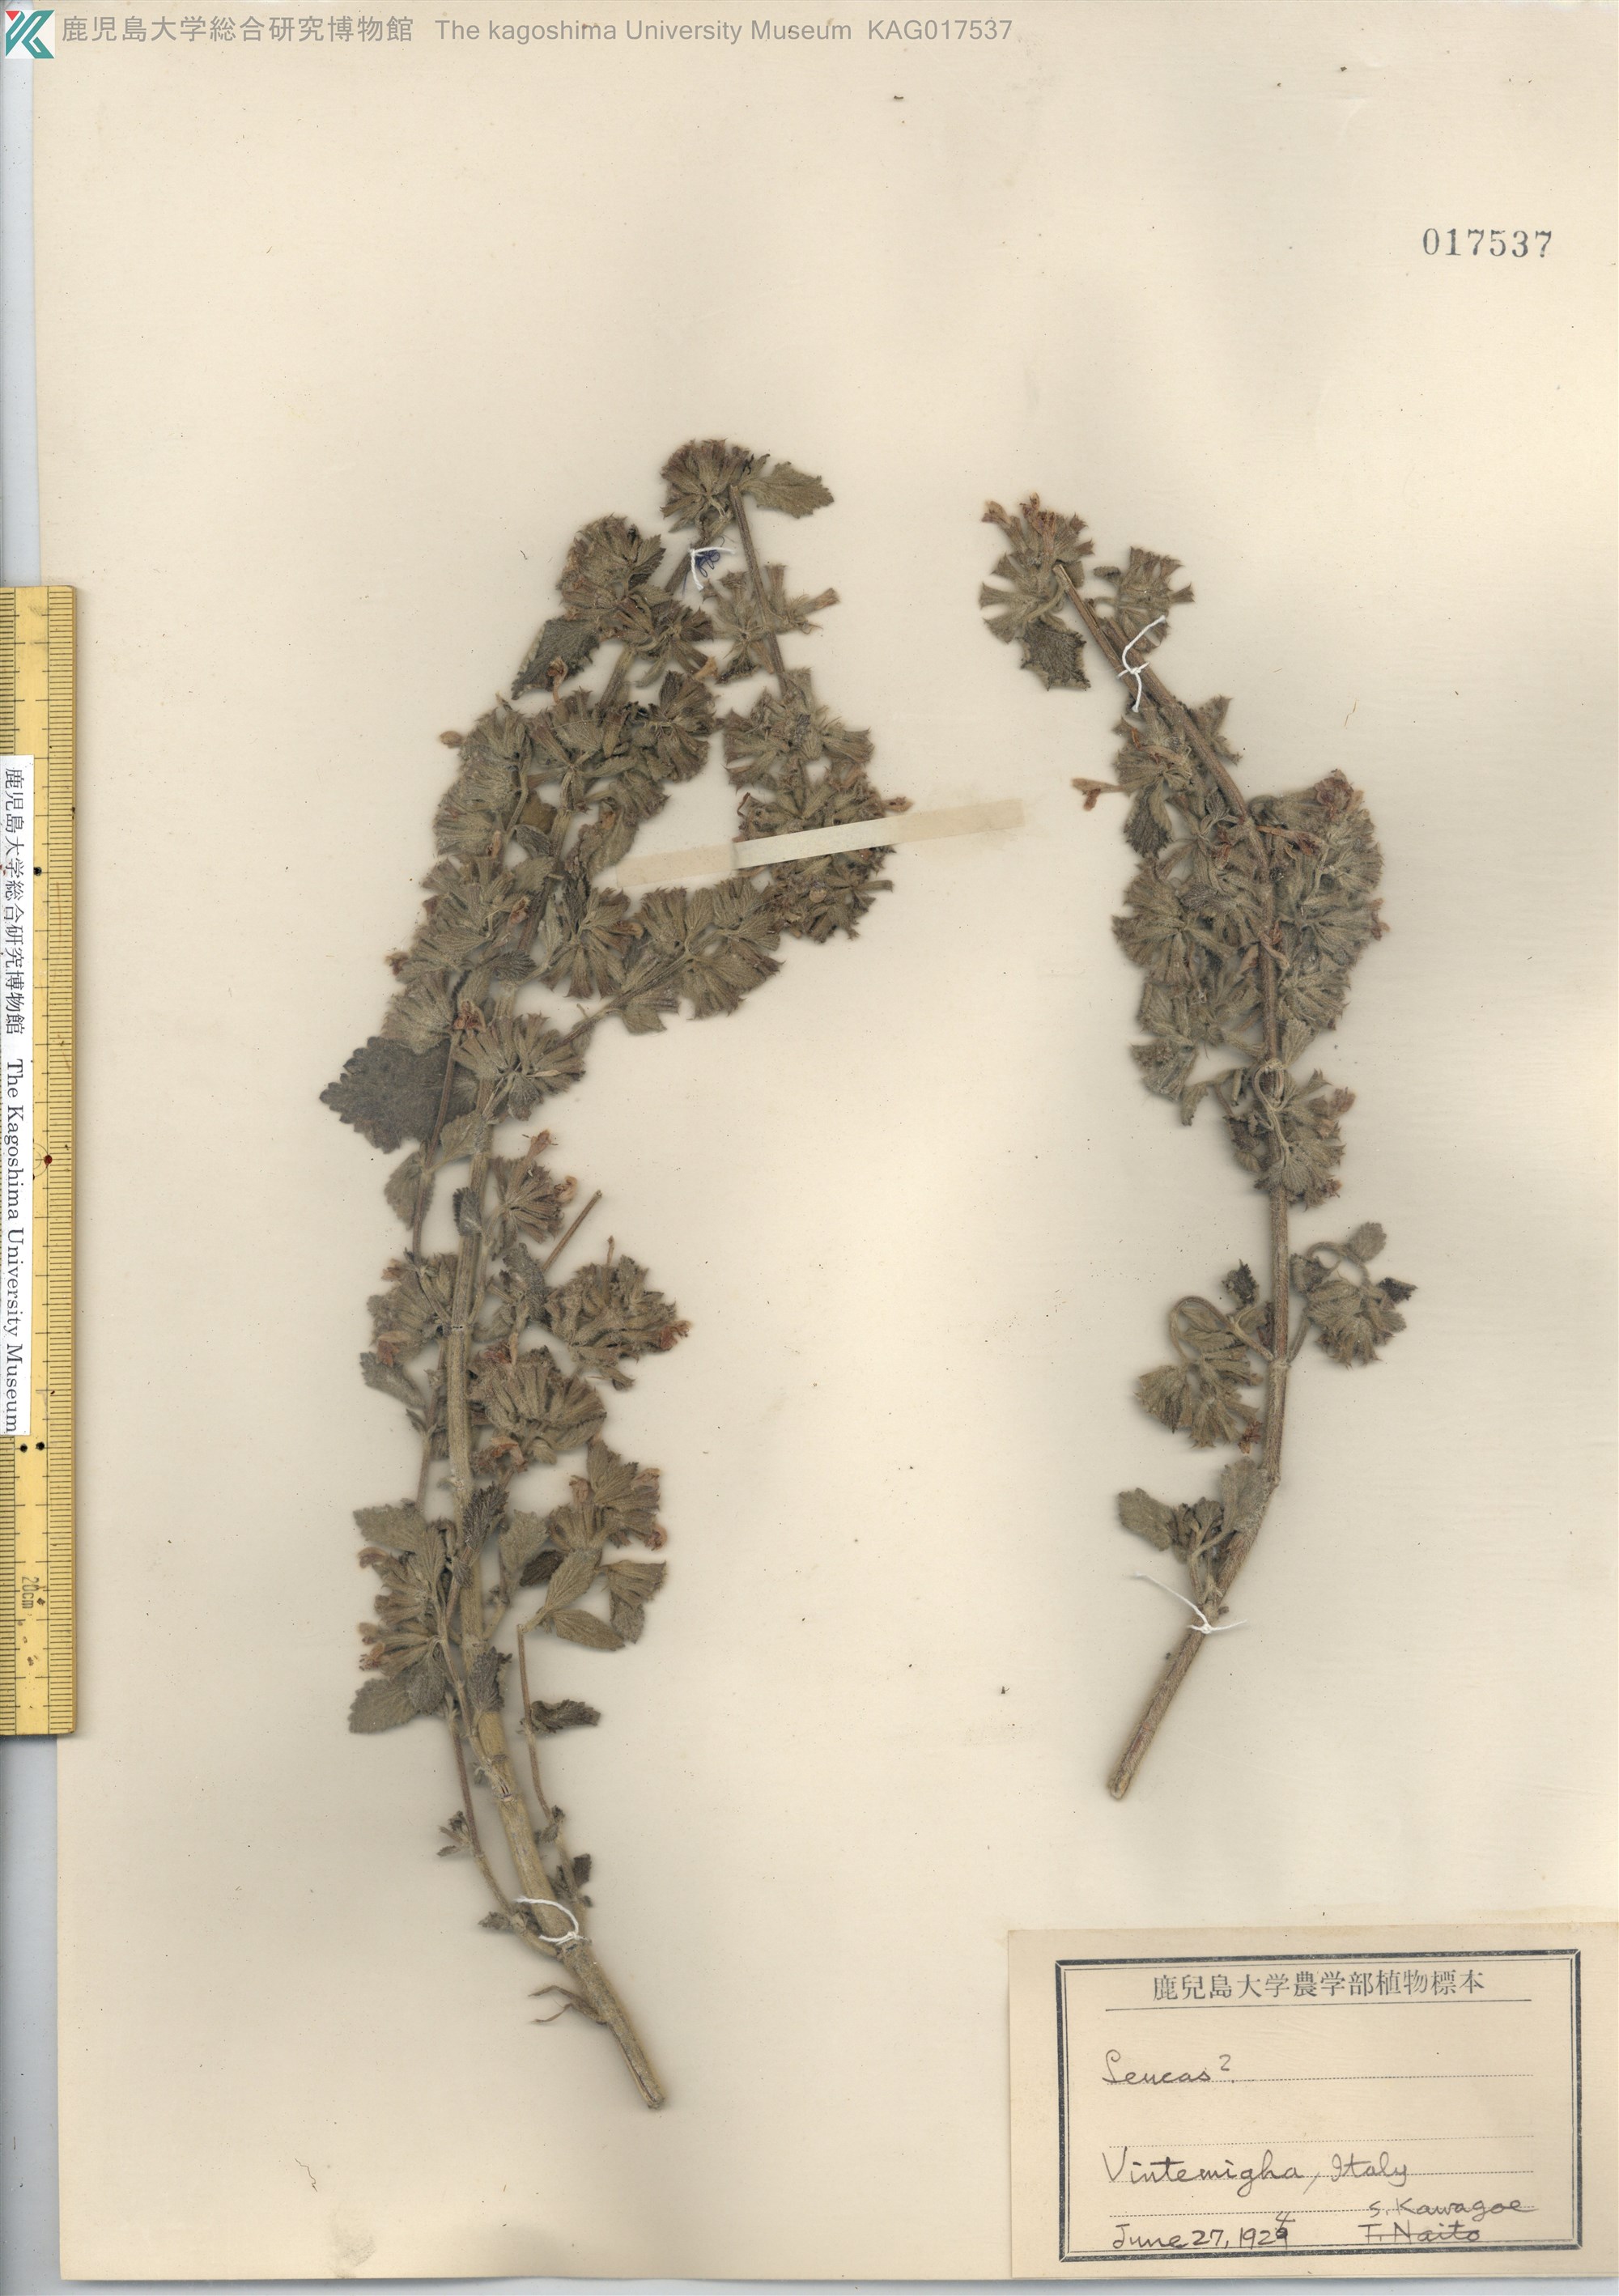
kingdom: Plantae
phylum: Tracheophyta
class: Magnoliopsida
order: Lamiales
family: Lamiaceae
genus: Ballota
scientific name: Ballota nigra
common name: Black horehound
